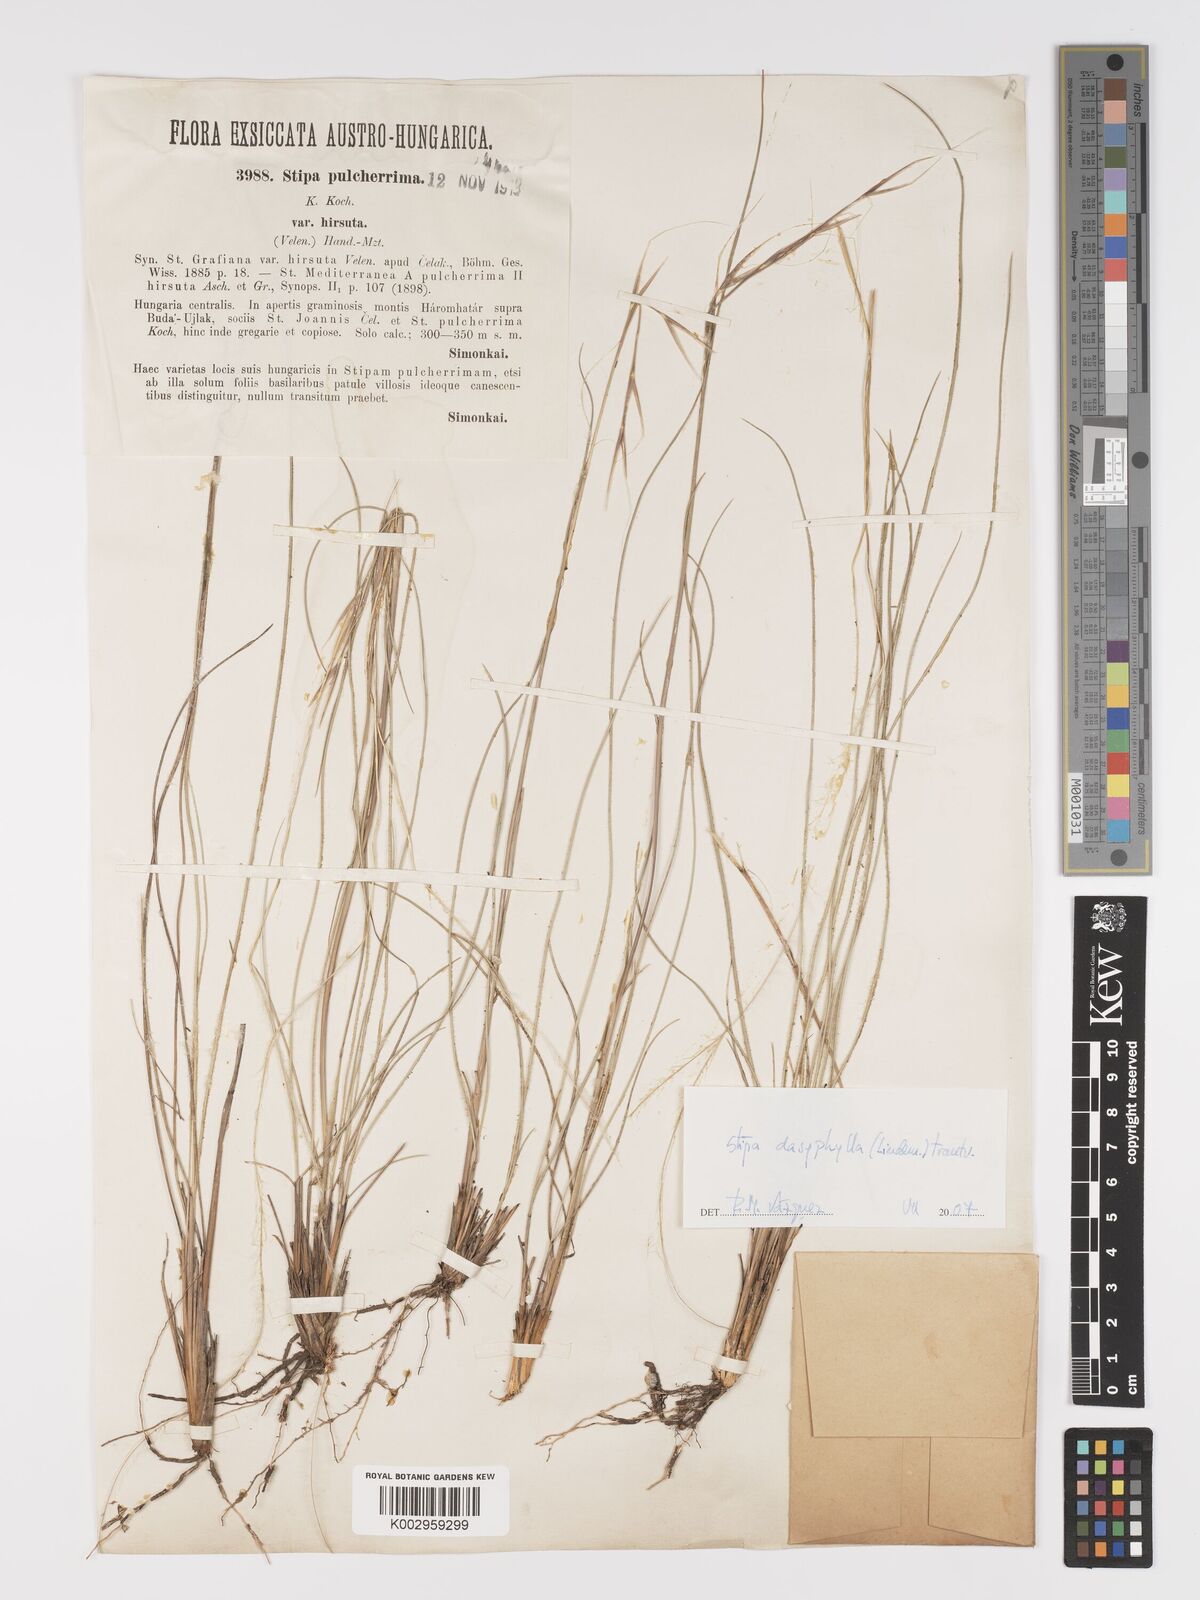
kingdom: Plantae
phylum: Tracheophyta
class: Liliopsida
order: Poales
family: Poaceae
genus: Stipa
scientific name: Stipa dasyphylla
